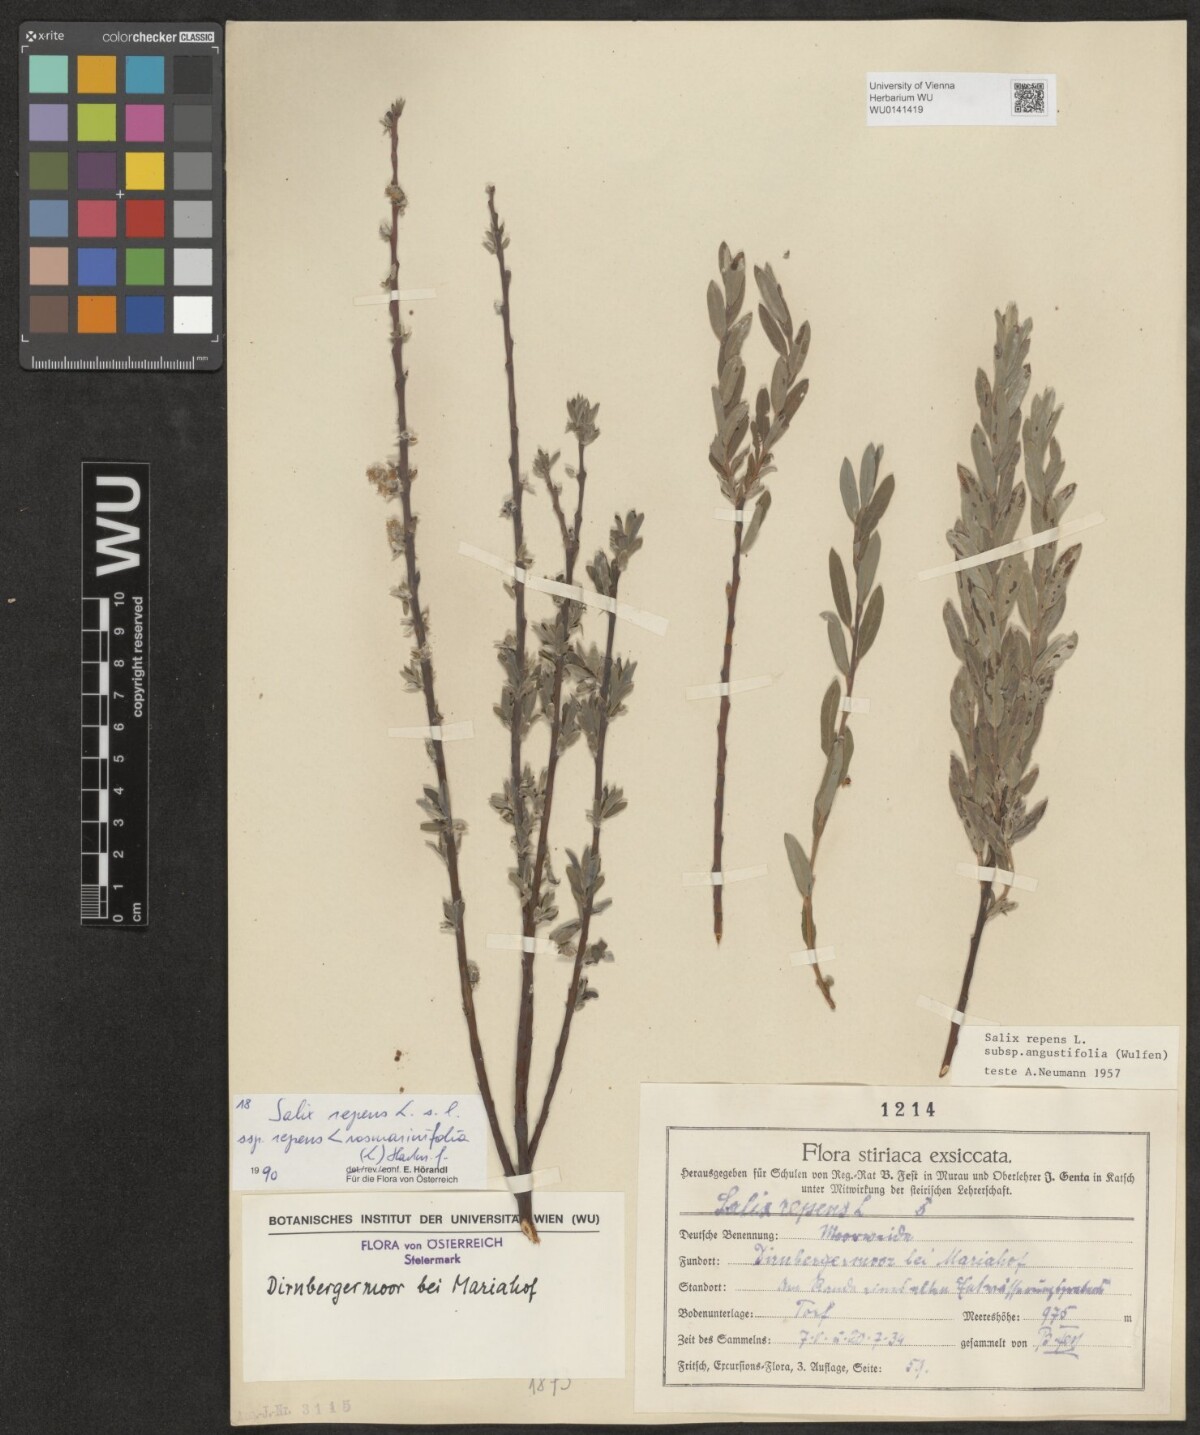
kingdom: Plantae
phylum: Tracheophyta
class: Magnoliopsida
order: Malpighiales
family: Salicaceae
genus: Salix
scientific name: Salix repens
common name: Creeping willow
